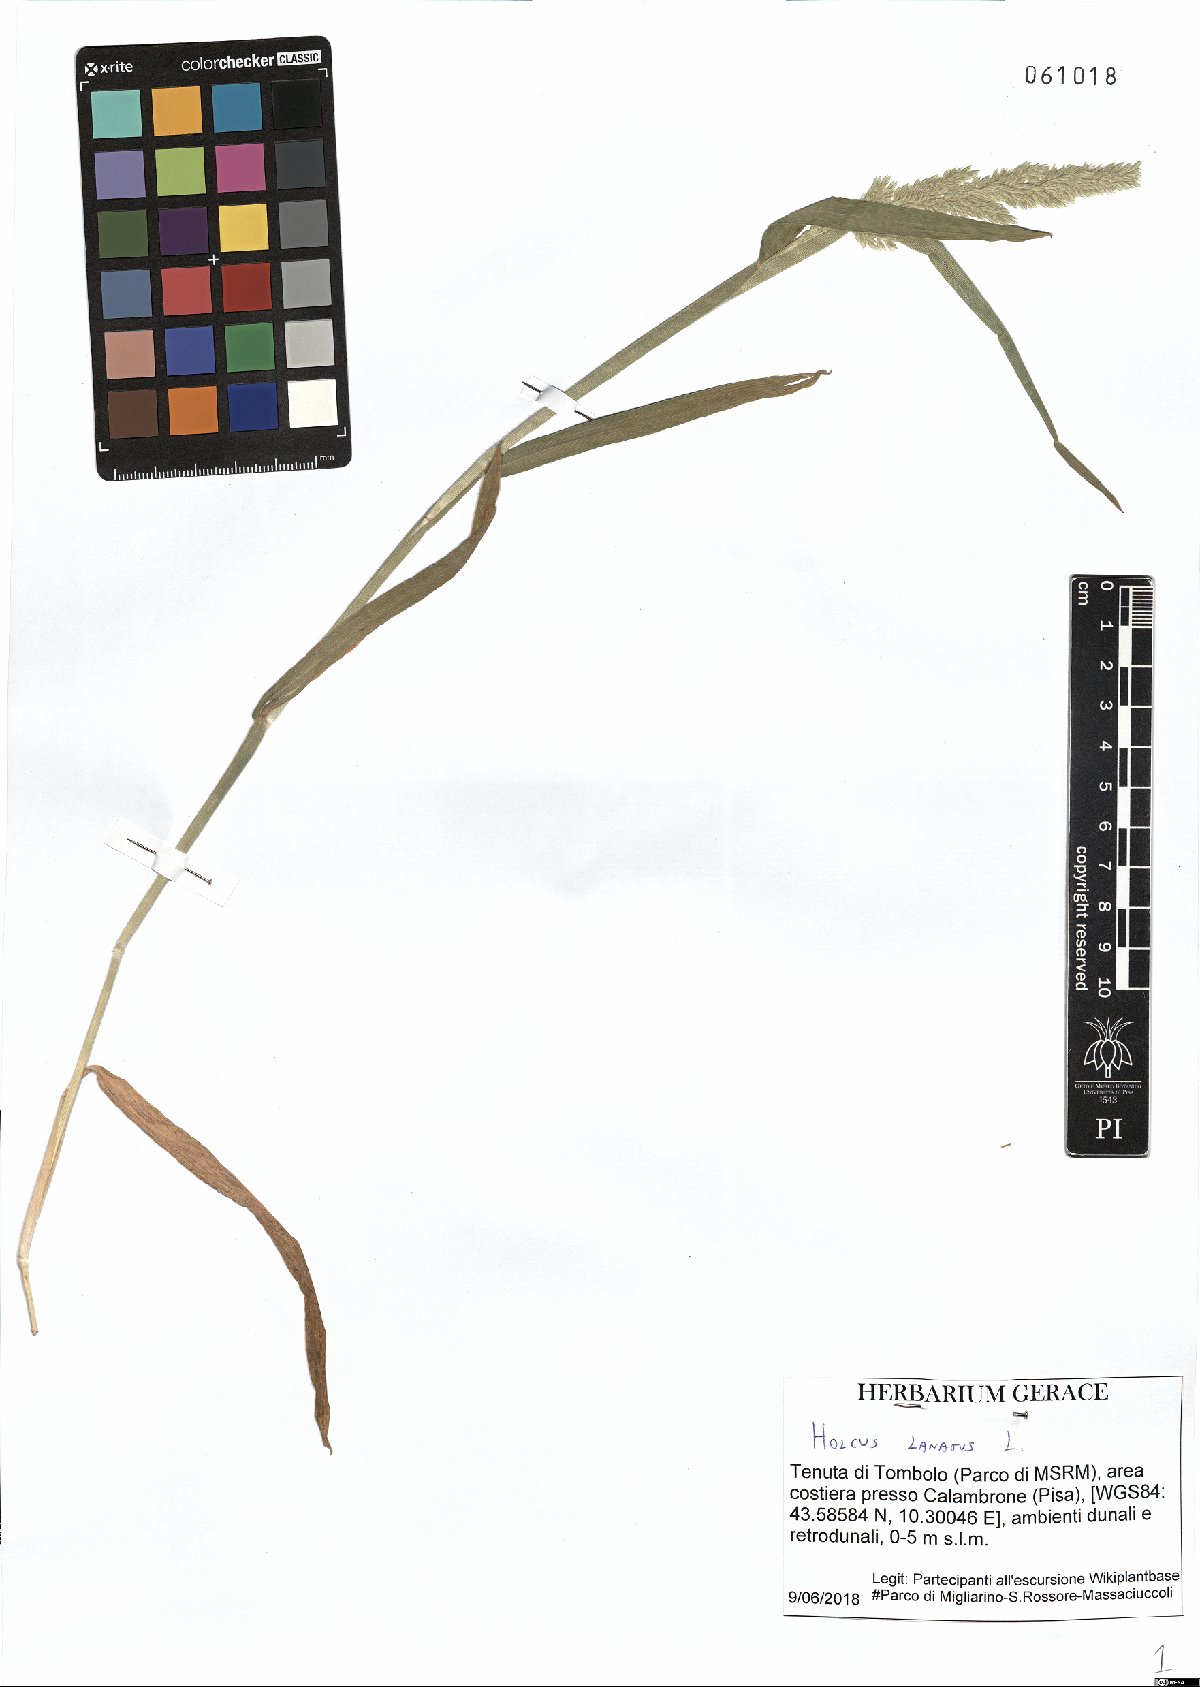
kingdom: Plantae
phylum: Tracheophyta
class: Liliopsida
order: Poales
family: Poaceae
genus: Holcus
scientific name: Holcus lanatus
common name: Yorkshire-fog
